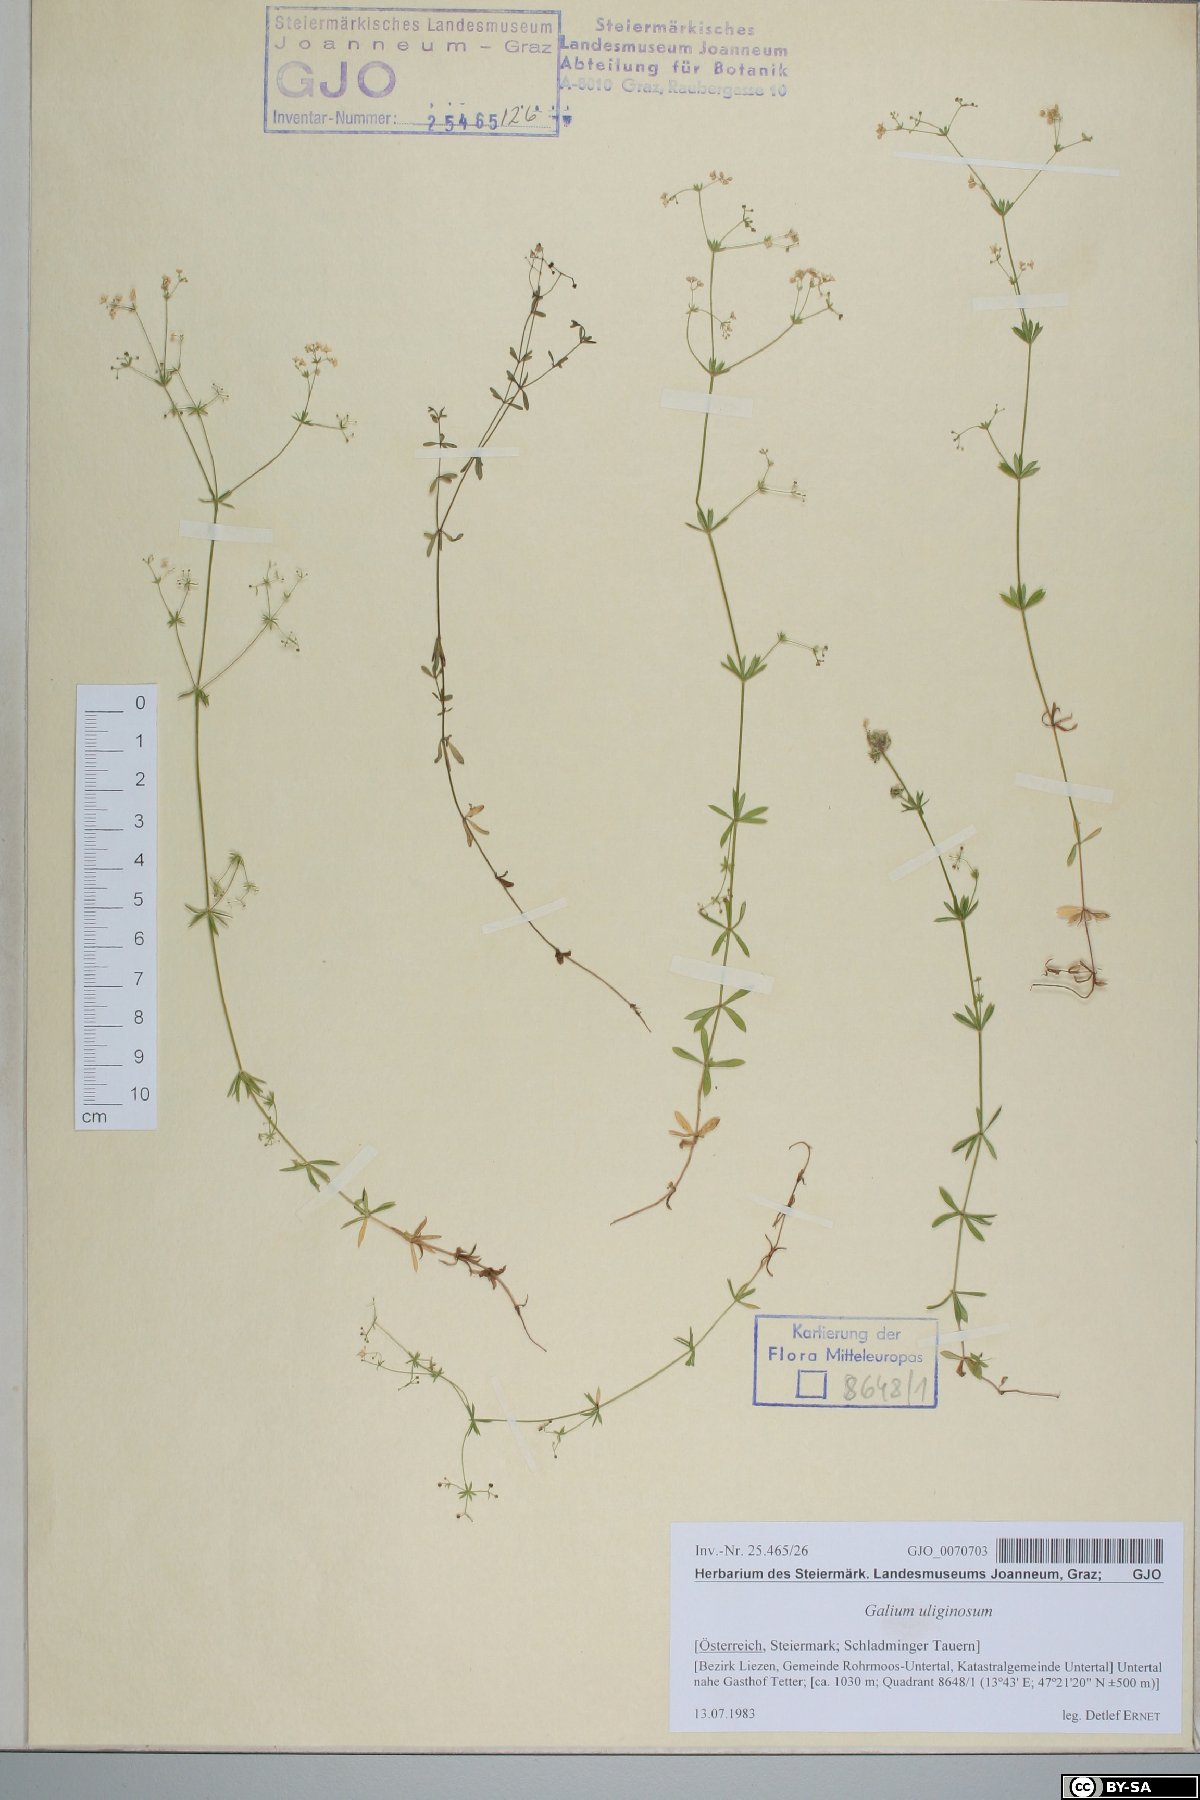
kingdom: Plantae
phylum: Tracheophyta
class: Magnoliopsida
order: Gentianales
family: Rubiaceae
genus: Galium
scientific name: Galium uliginosum
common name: Fen bedstraw
